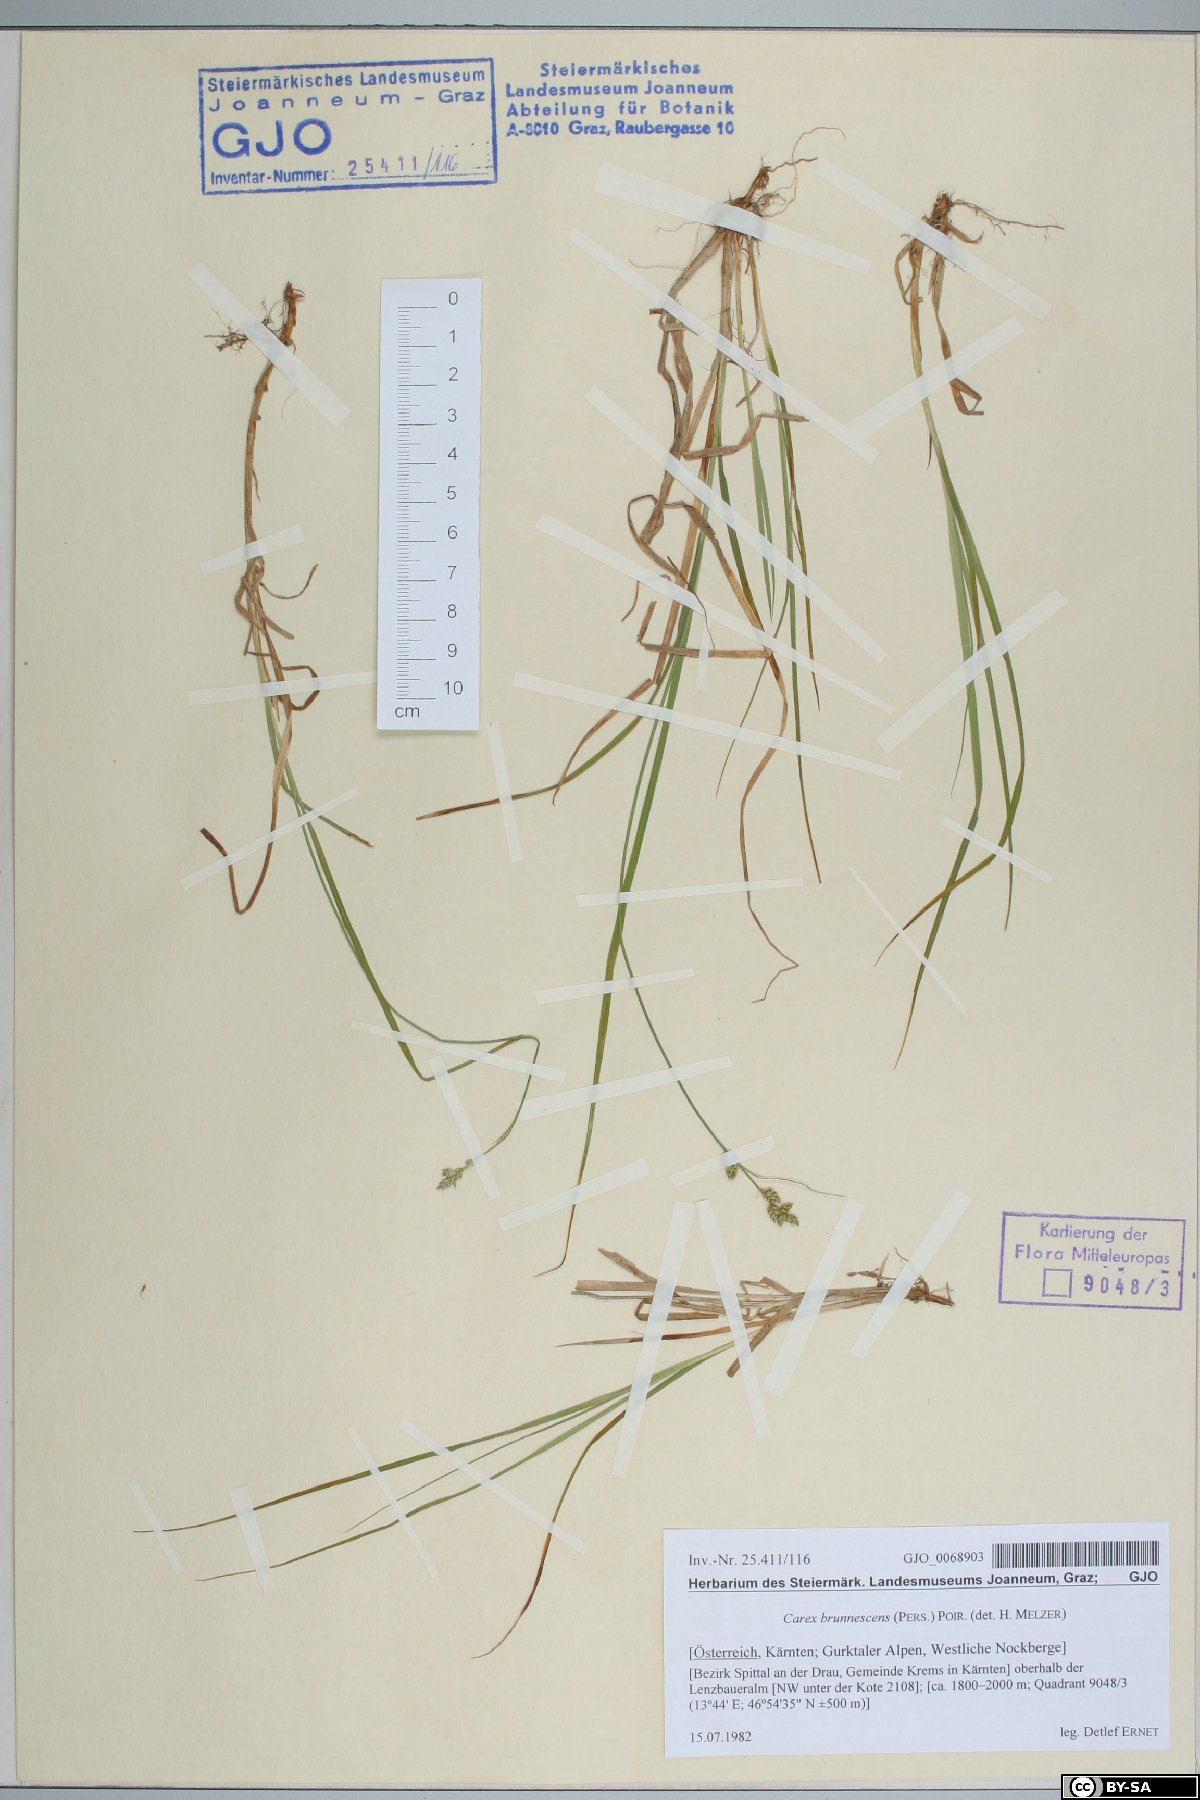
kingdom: Plantae
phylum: Tracheophyta
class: Liliopsida
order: Poales
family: Cyperaceae
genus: Carex
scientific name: Carex brunnescens
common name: Brown sedge
